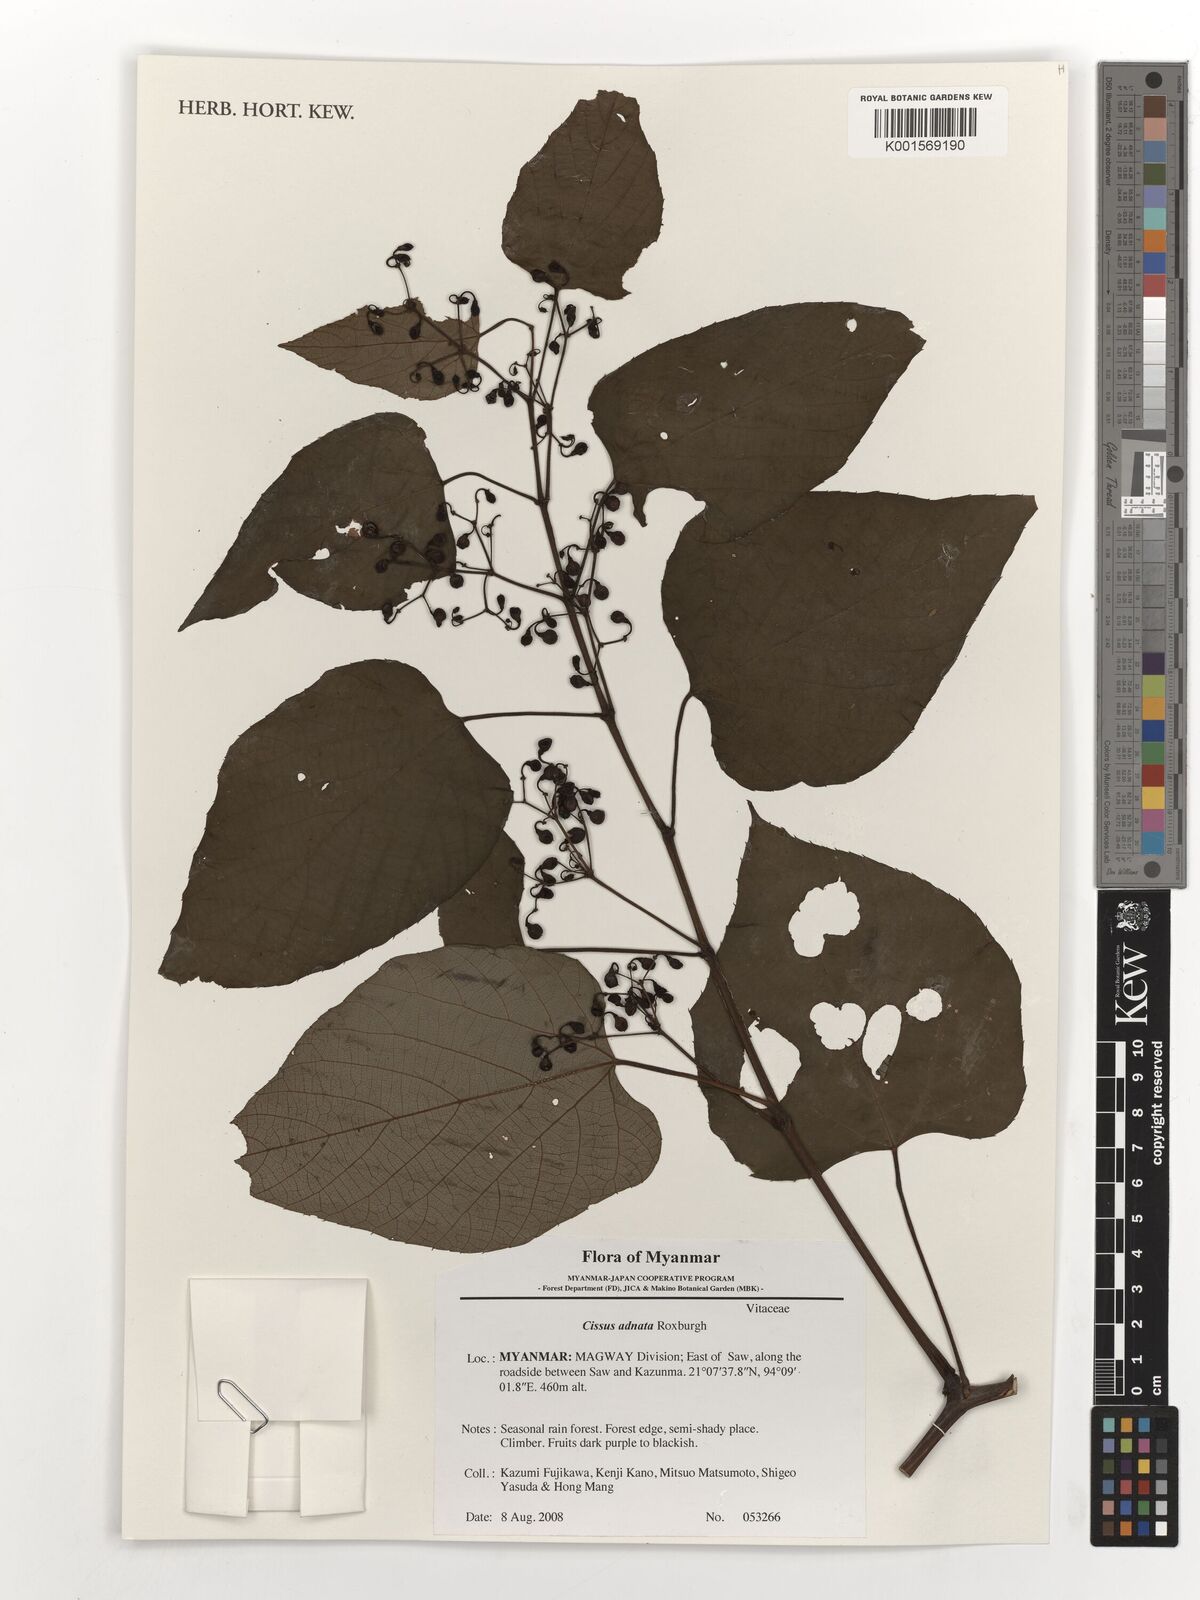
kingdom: Plantae
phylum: Tracheophyta
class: Magnoliopsida
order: Vitales
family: Vitaceae
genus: Cissus
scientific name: Cissus adnata
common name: Heart-leaf-grape
